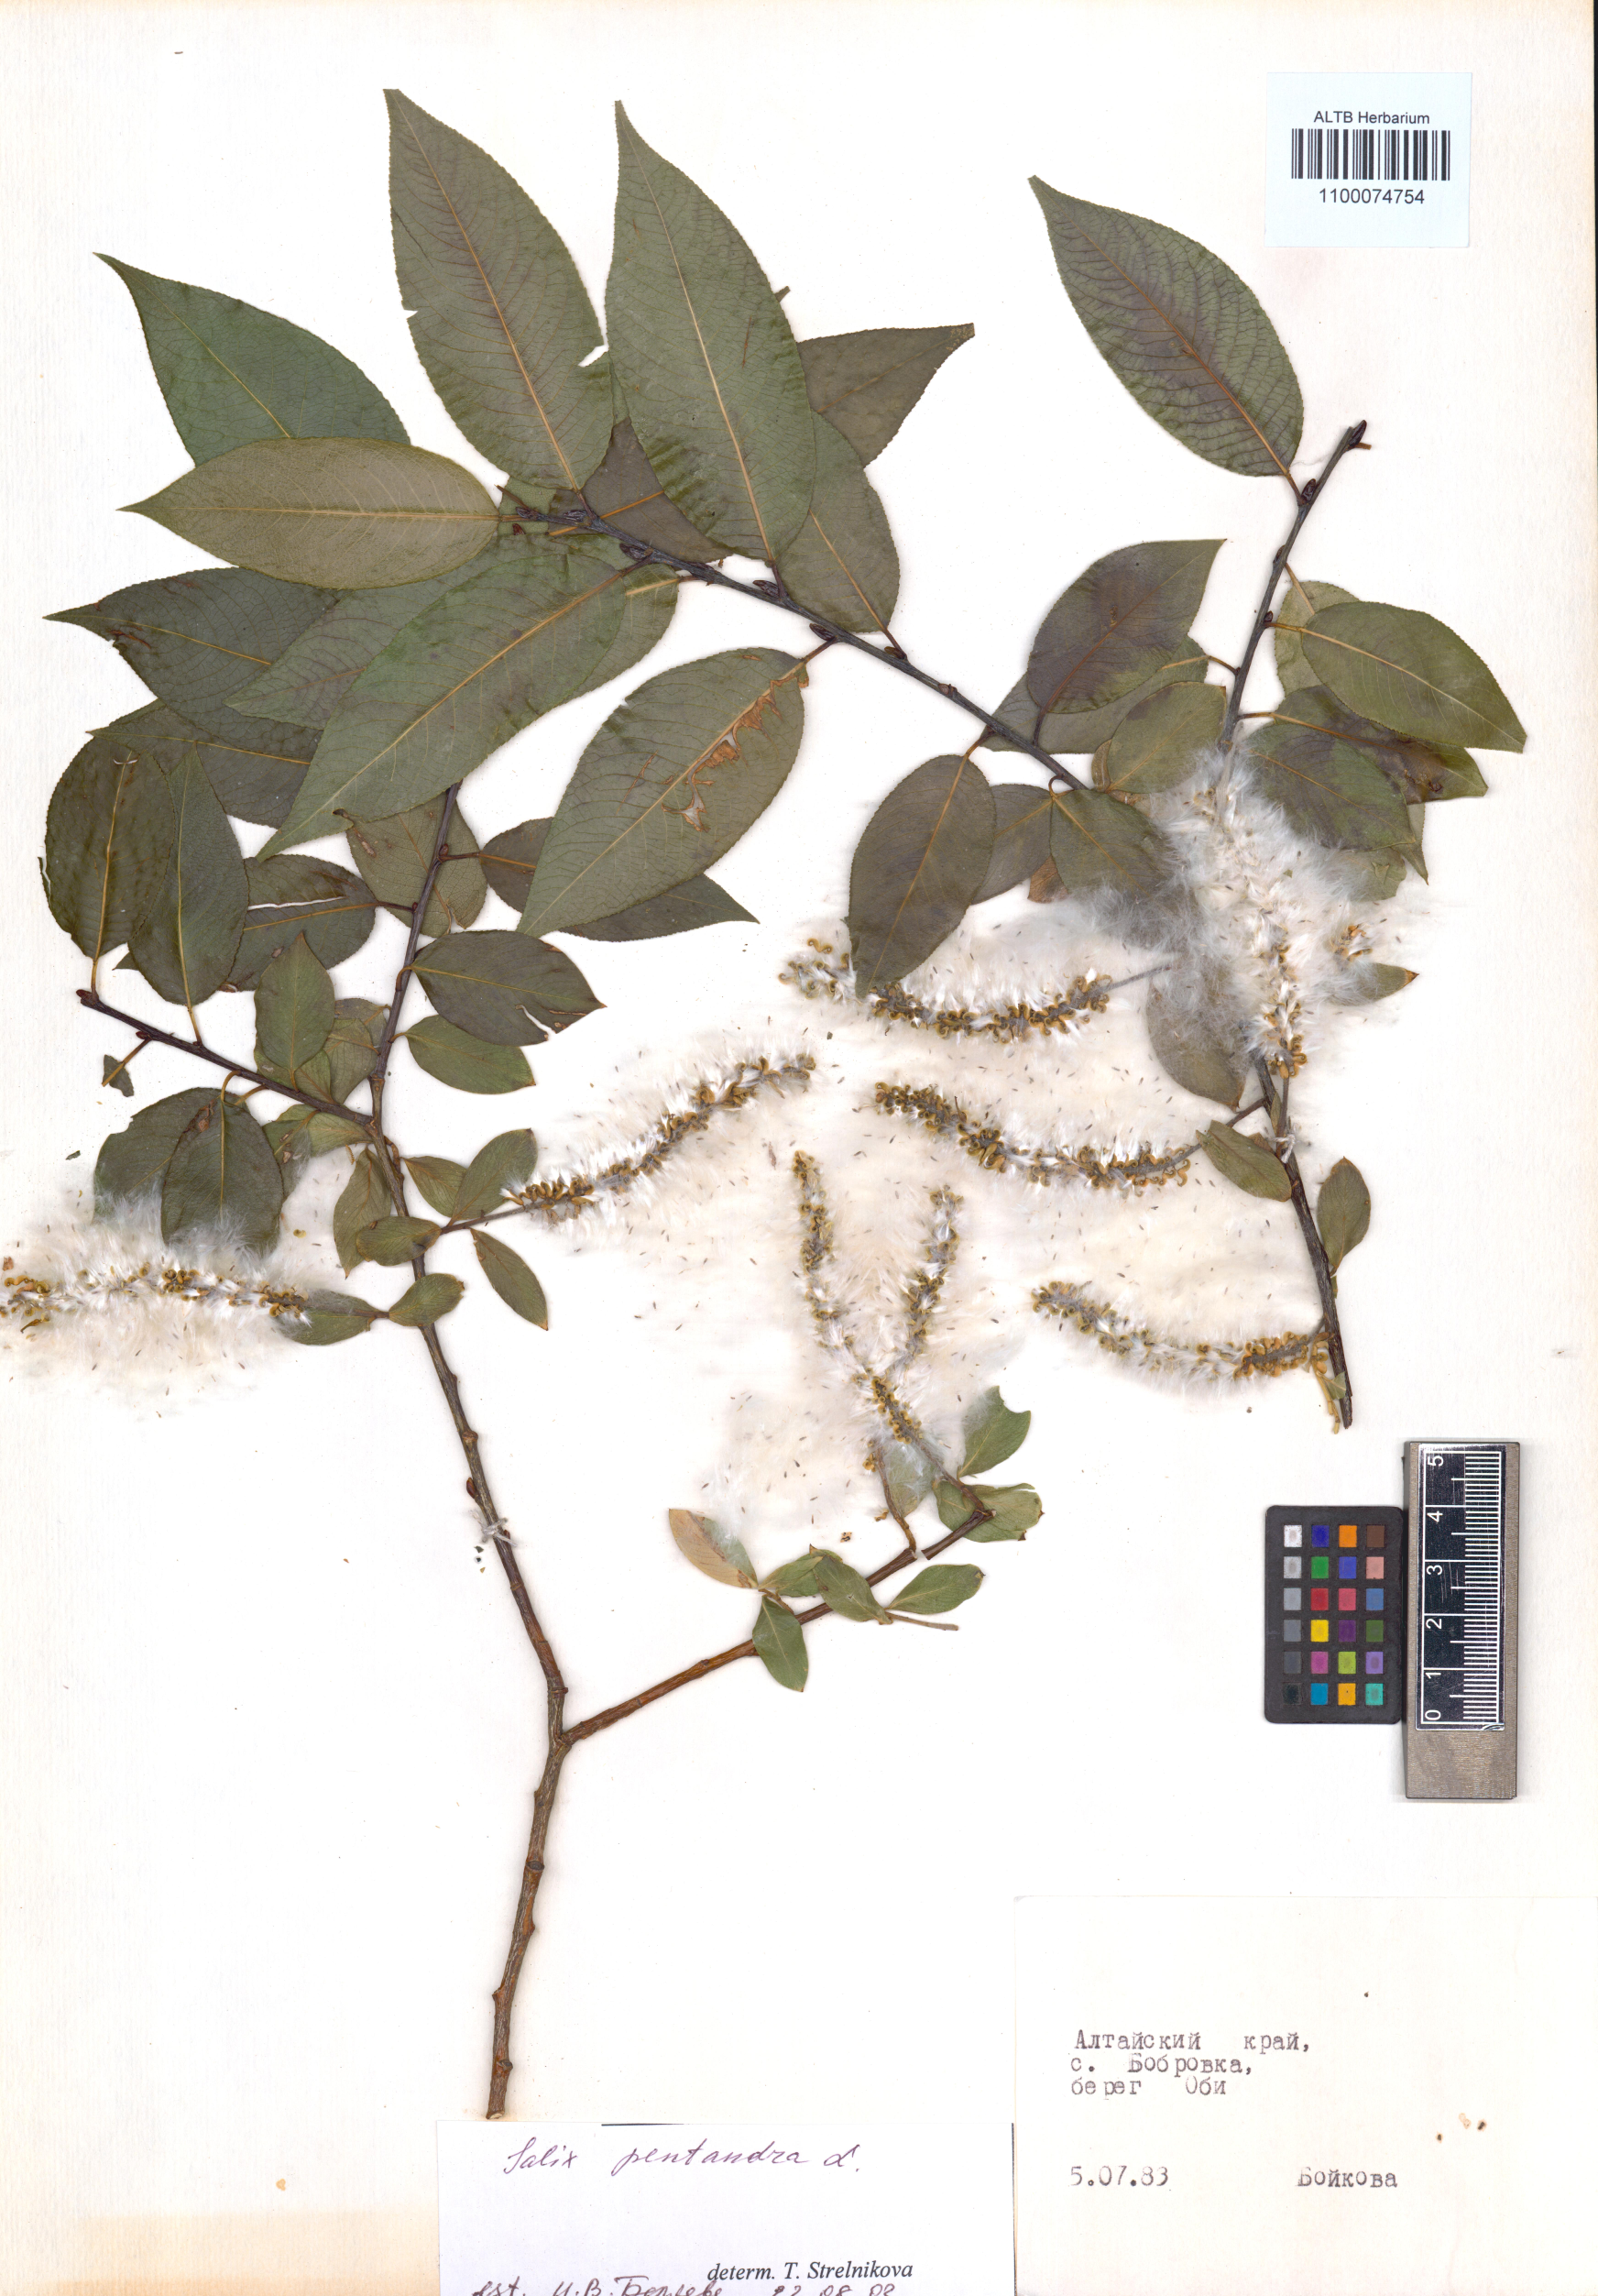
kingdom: Plantae
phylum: Tracheophyta
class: Magnoliopsida
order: Malpighiales
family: Salicaceae
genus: Salix
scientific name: Salix pentandra
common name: Bay willow
